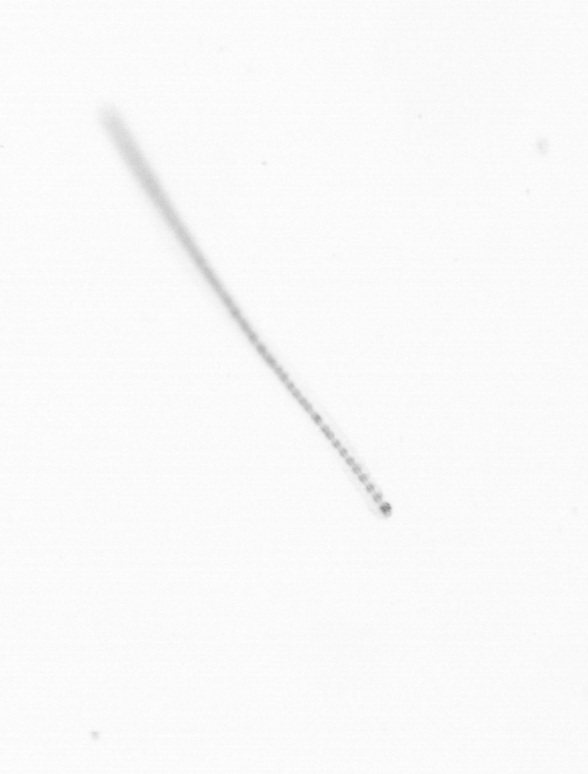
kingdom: Chromista
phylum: Ochrophyta
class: Bacillariophyceae
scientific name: Bacillariophyceae
